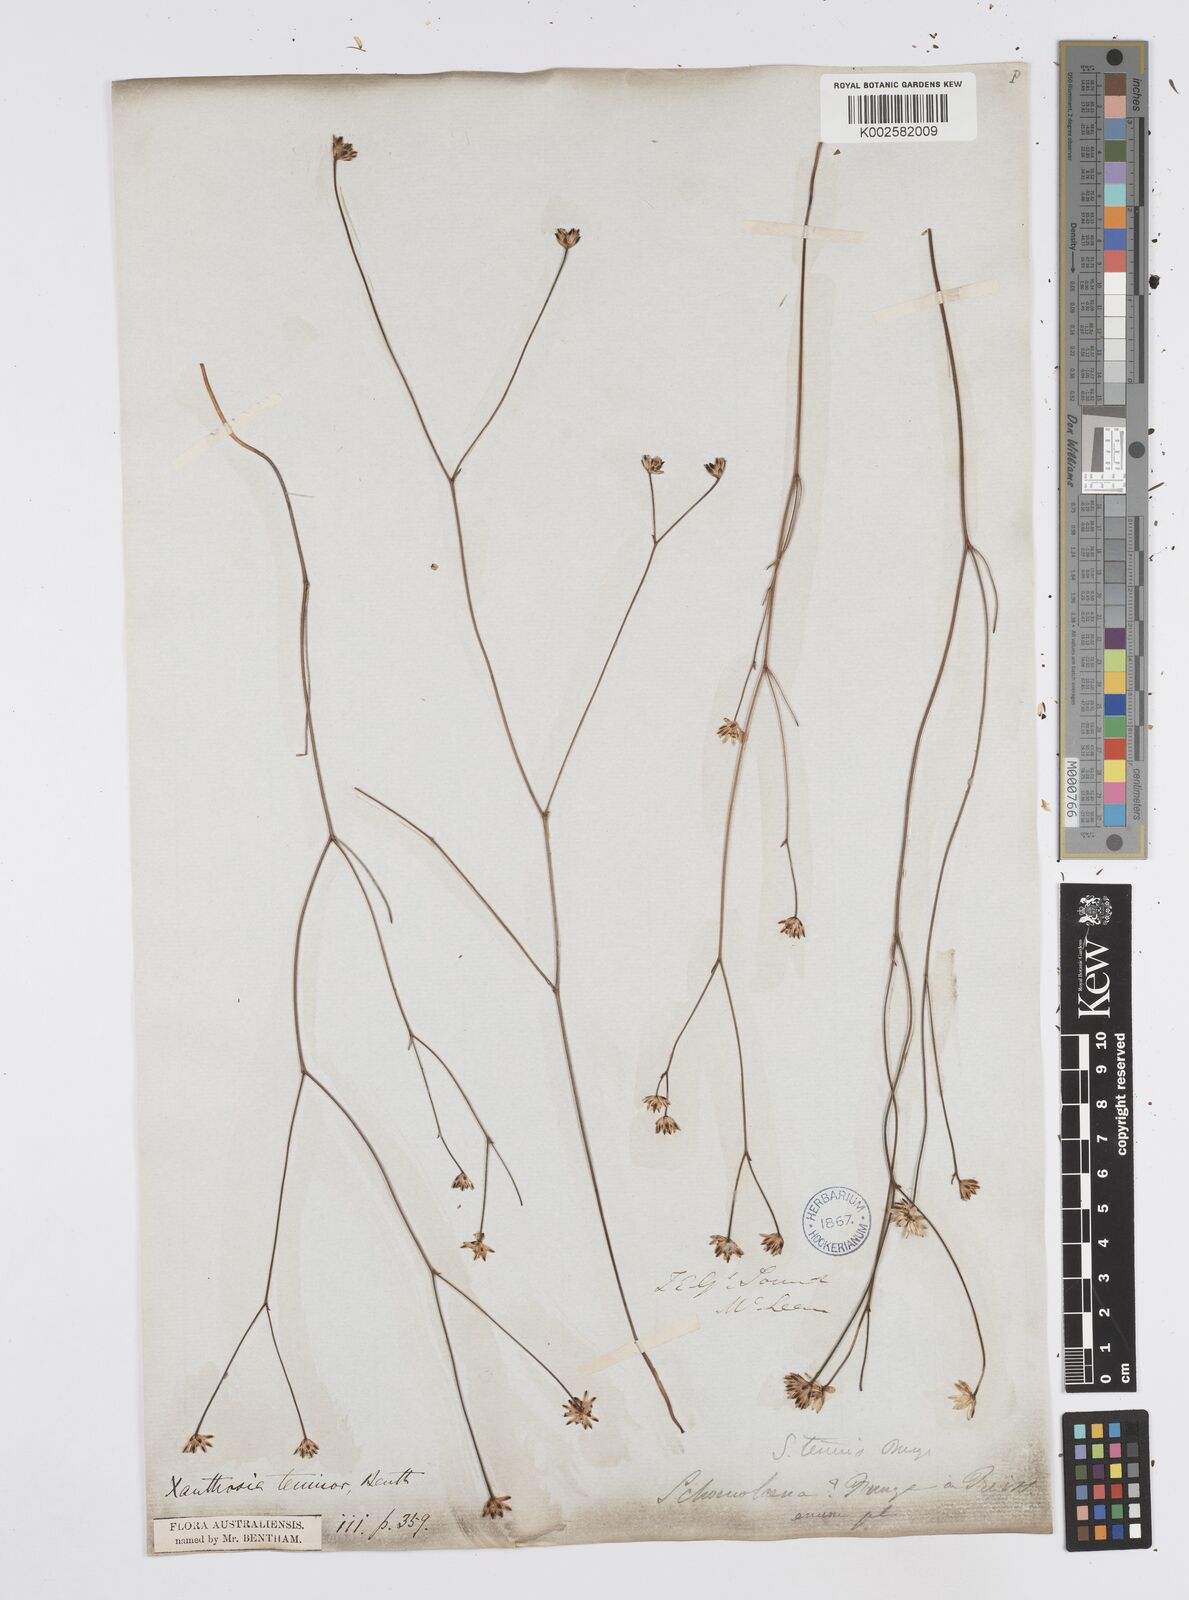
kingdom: Plantae
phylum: Tracheophyta
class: Magnoliopsida
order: Apiales
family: Apiaceae
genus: Schoenolaena
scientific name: Schoenolaena juncea
